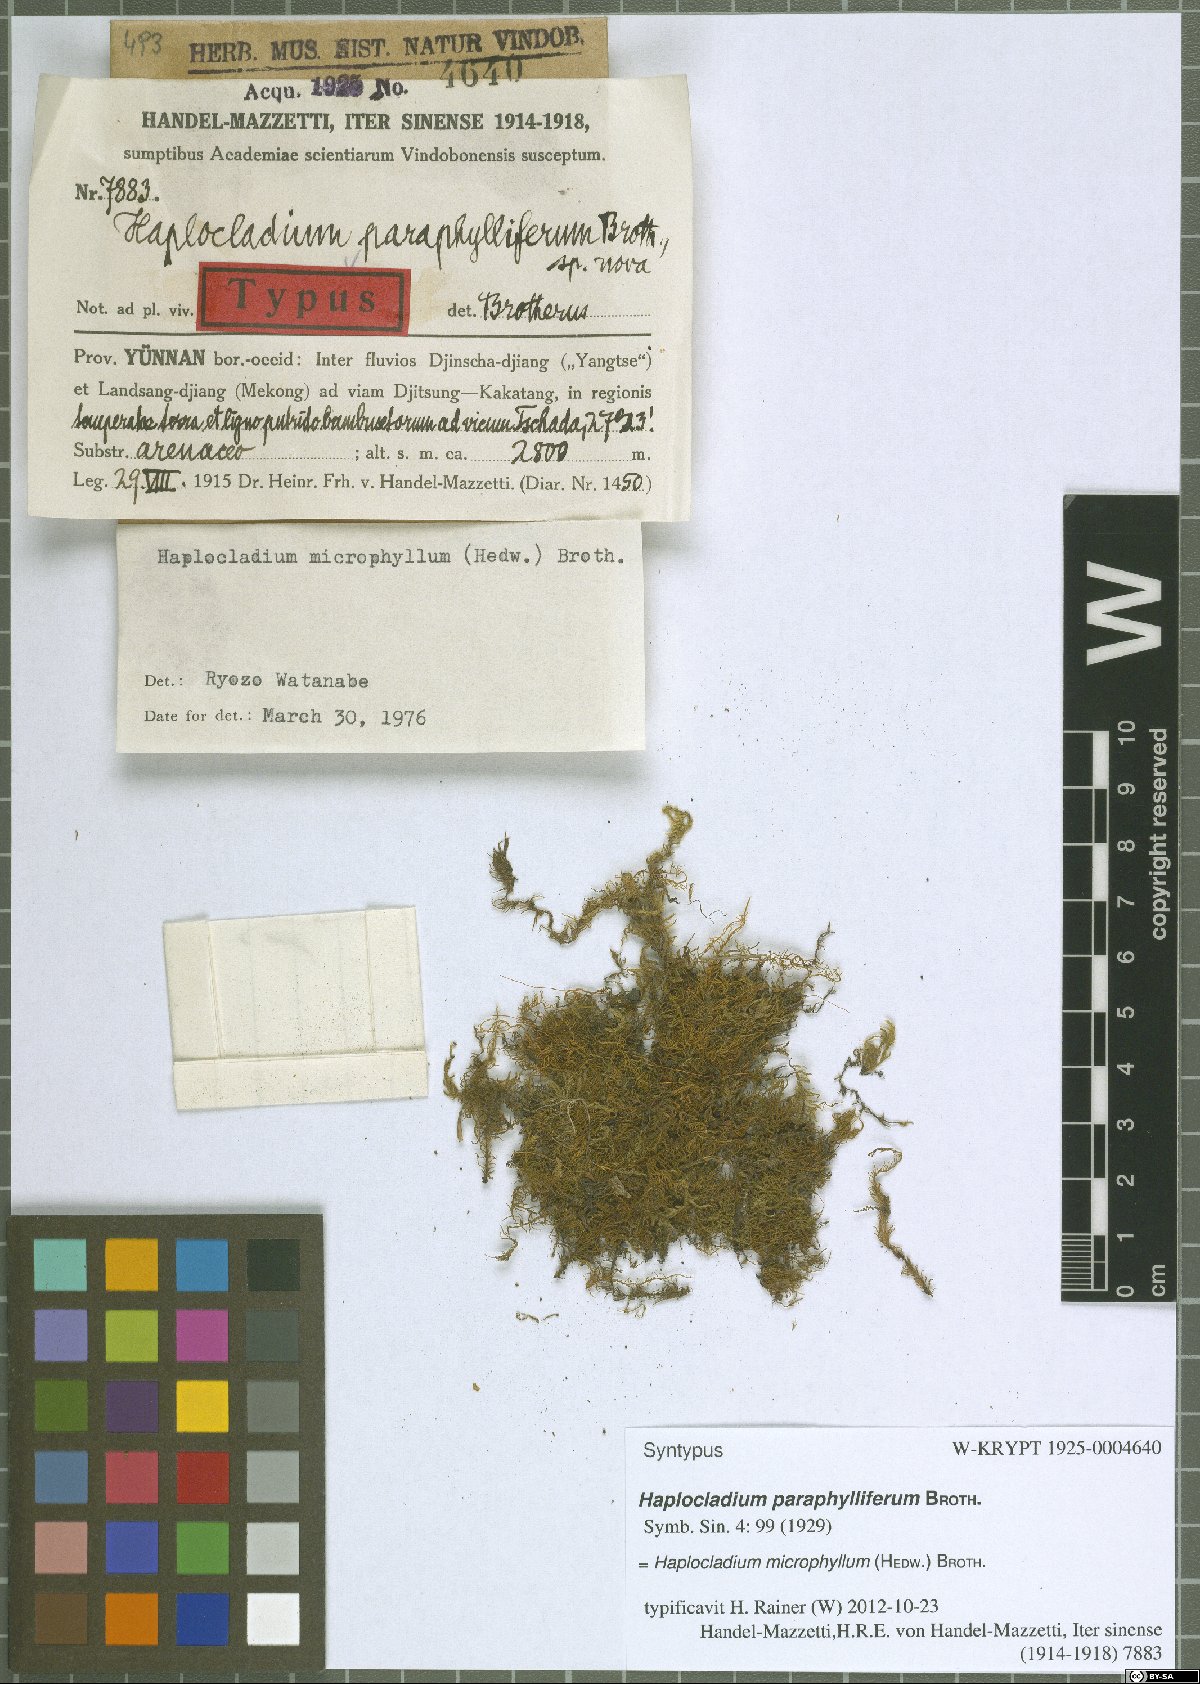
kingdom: Plantae
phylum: Bryophyta
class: Bryopsida
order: Hypnales
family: Leskeaceae
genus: Haplocladium
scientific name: Haplocladium microphyllum
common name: Tiny-leaved haplocladium
